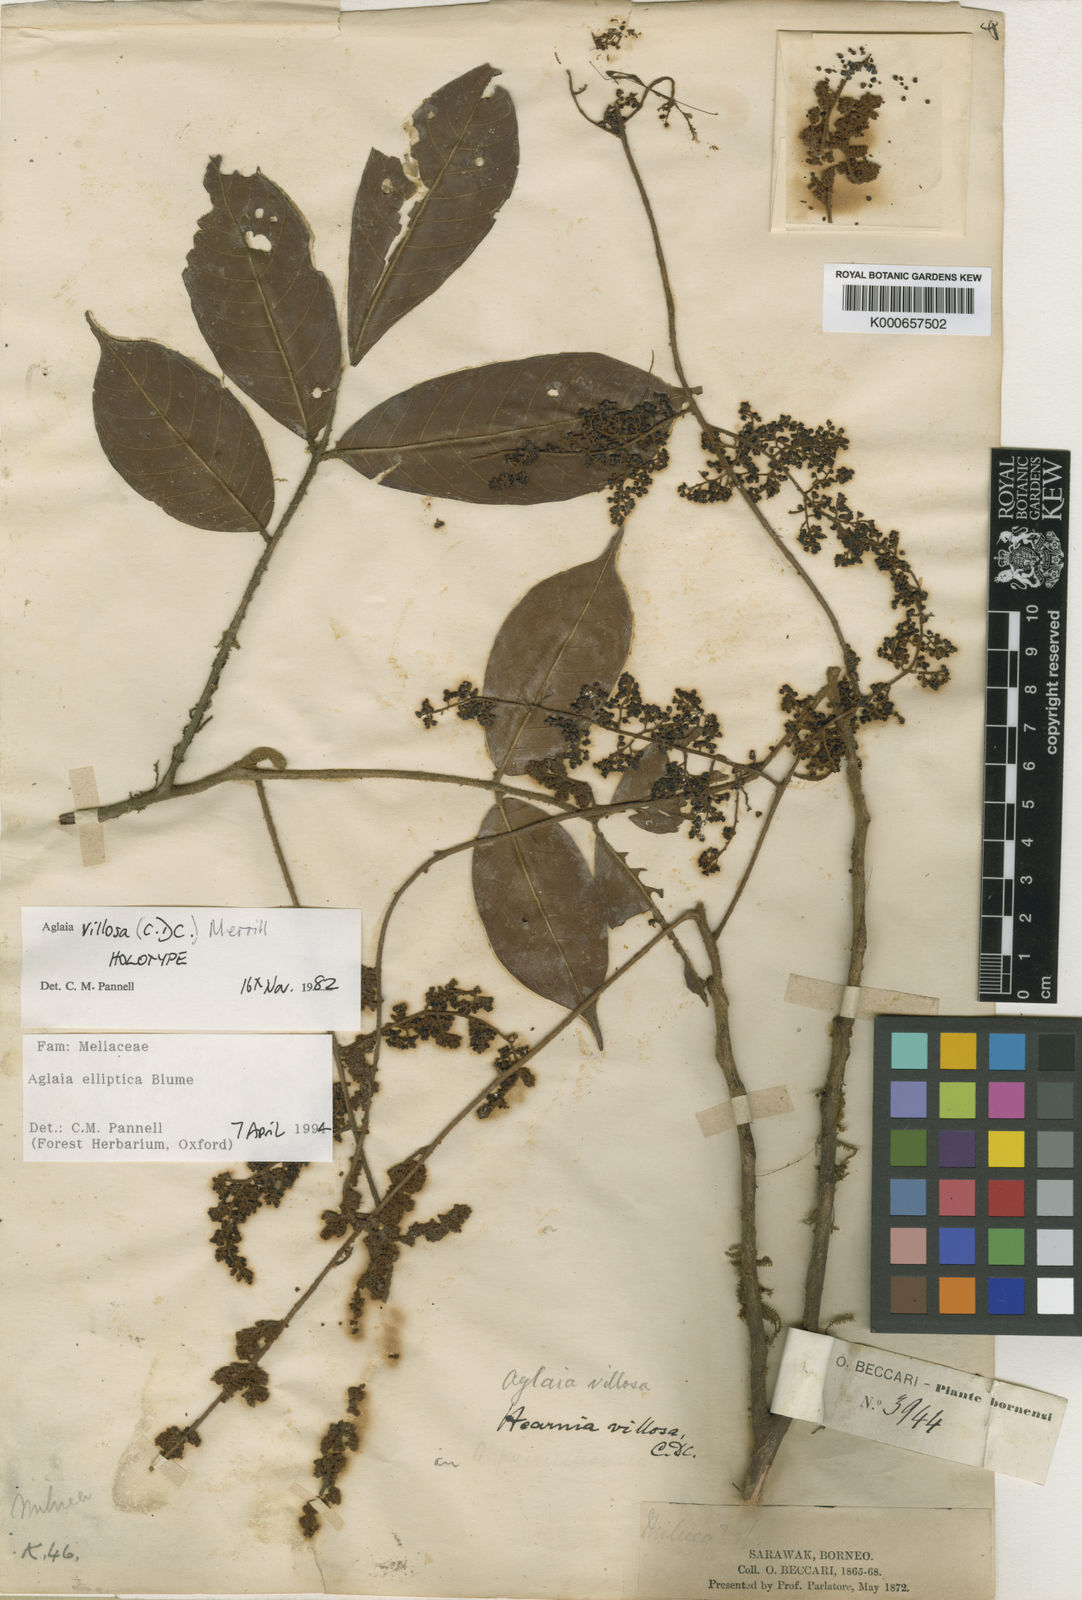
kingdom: Plantae
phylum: Tracheophyta
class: Magnoliopsida
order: Sapindales
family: Meliaceae
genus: Aglaia
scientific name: Aglaia elliptica
